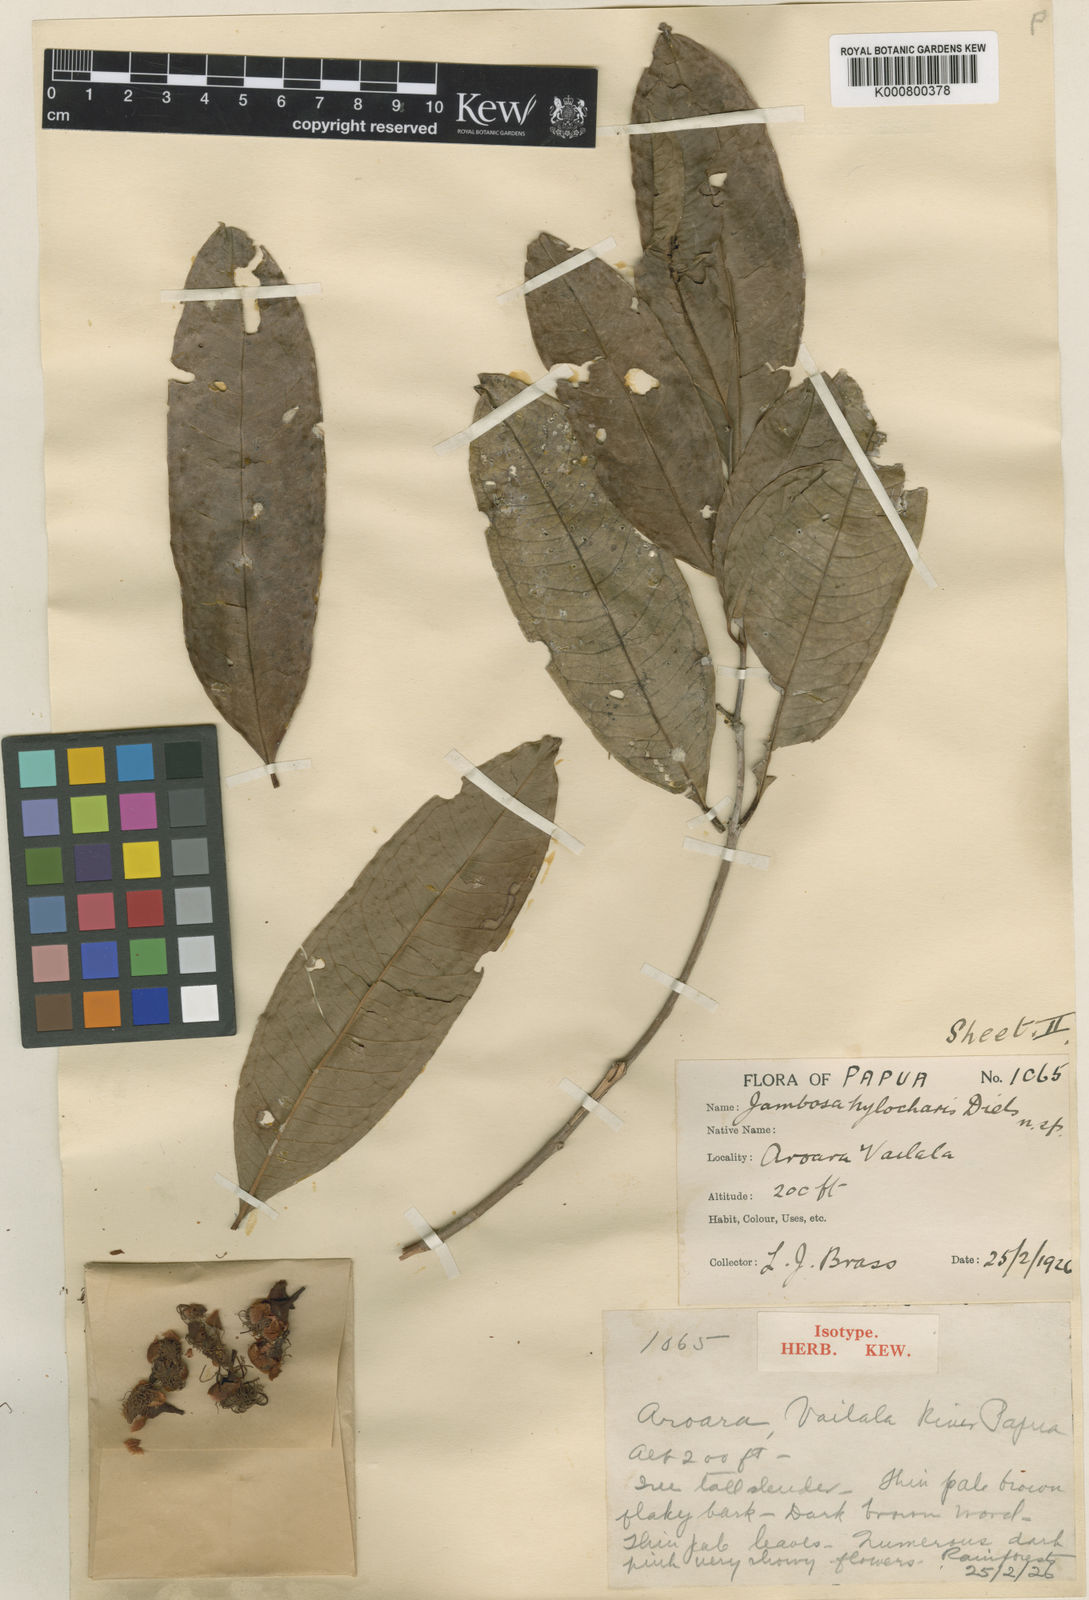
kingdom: Plantae
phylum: Tracheophyta
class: Magnoliopsida
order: Myrtales
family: Myrtaceae
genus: Syzygium
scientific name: Syzygium hylochare
